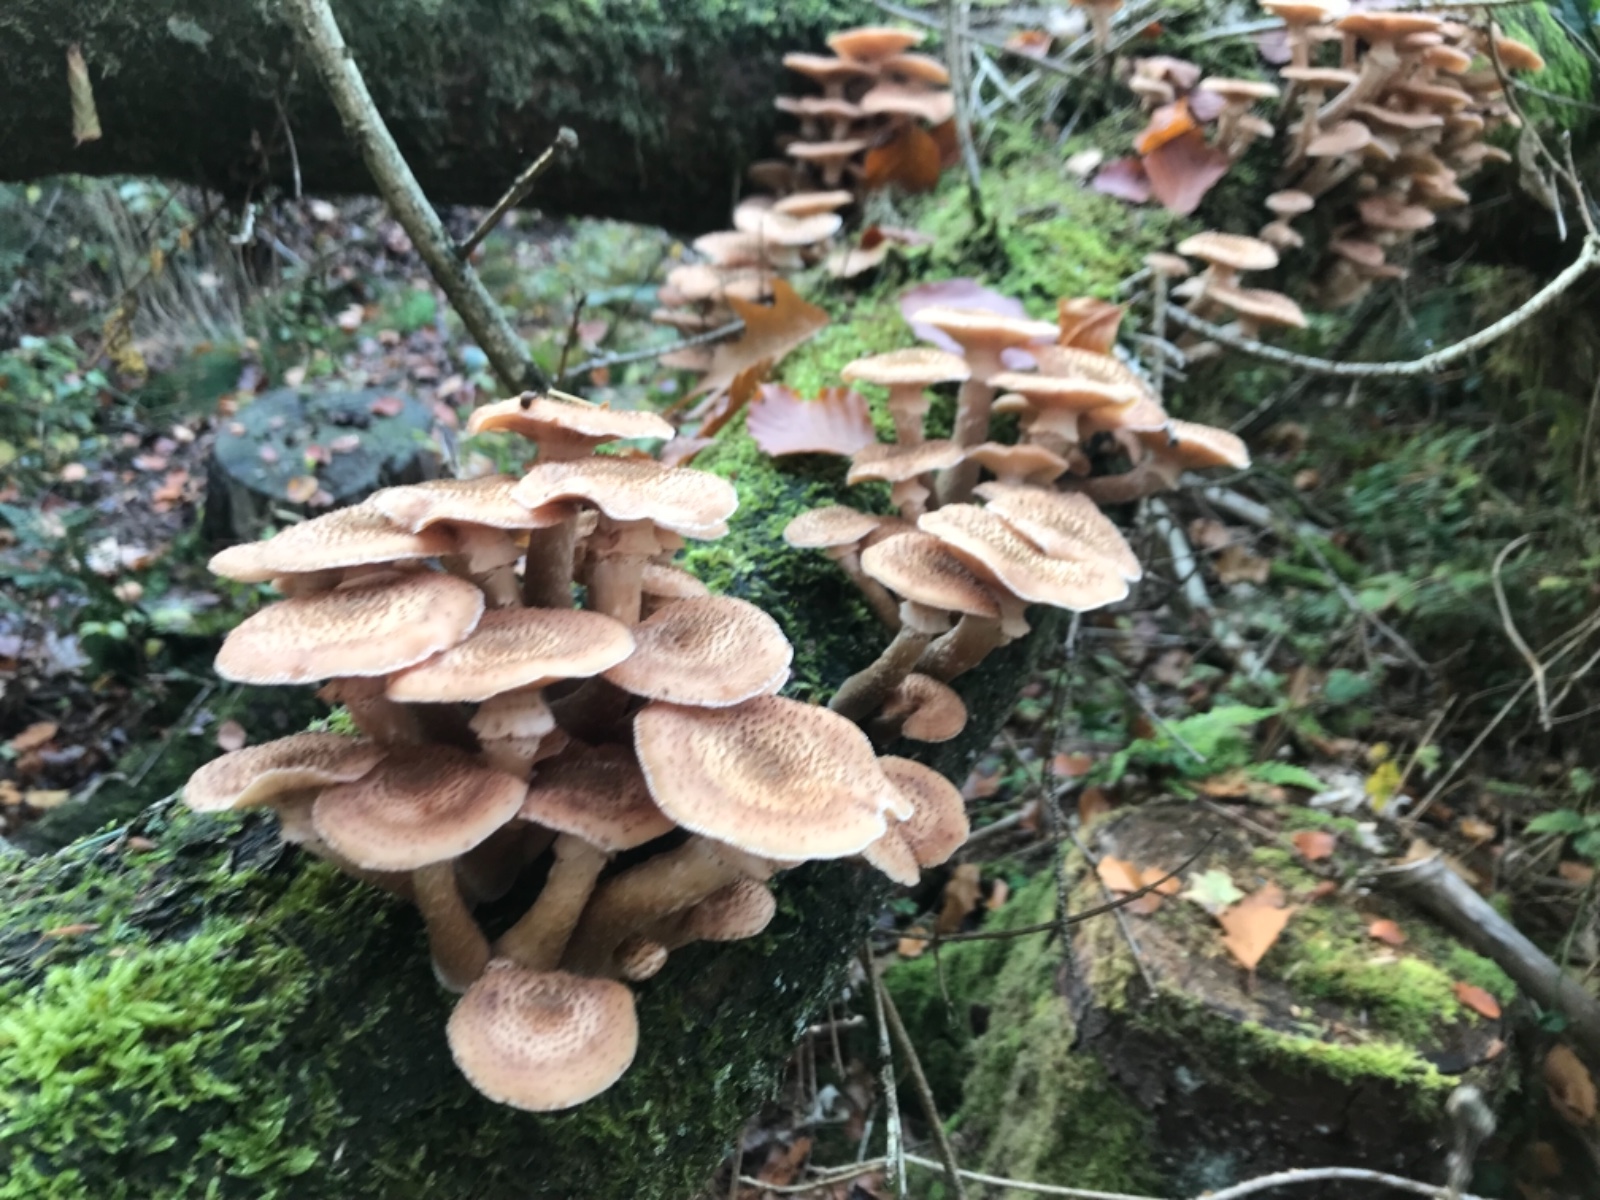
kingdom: Fungi
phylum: Basidiomycota
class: Agaricomycetes
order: Agaricales
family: Physalacriaceae
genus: Armillaria
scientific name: Armillaria ostoyae
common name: mørk honningsvamp
